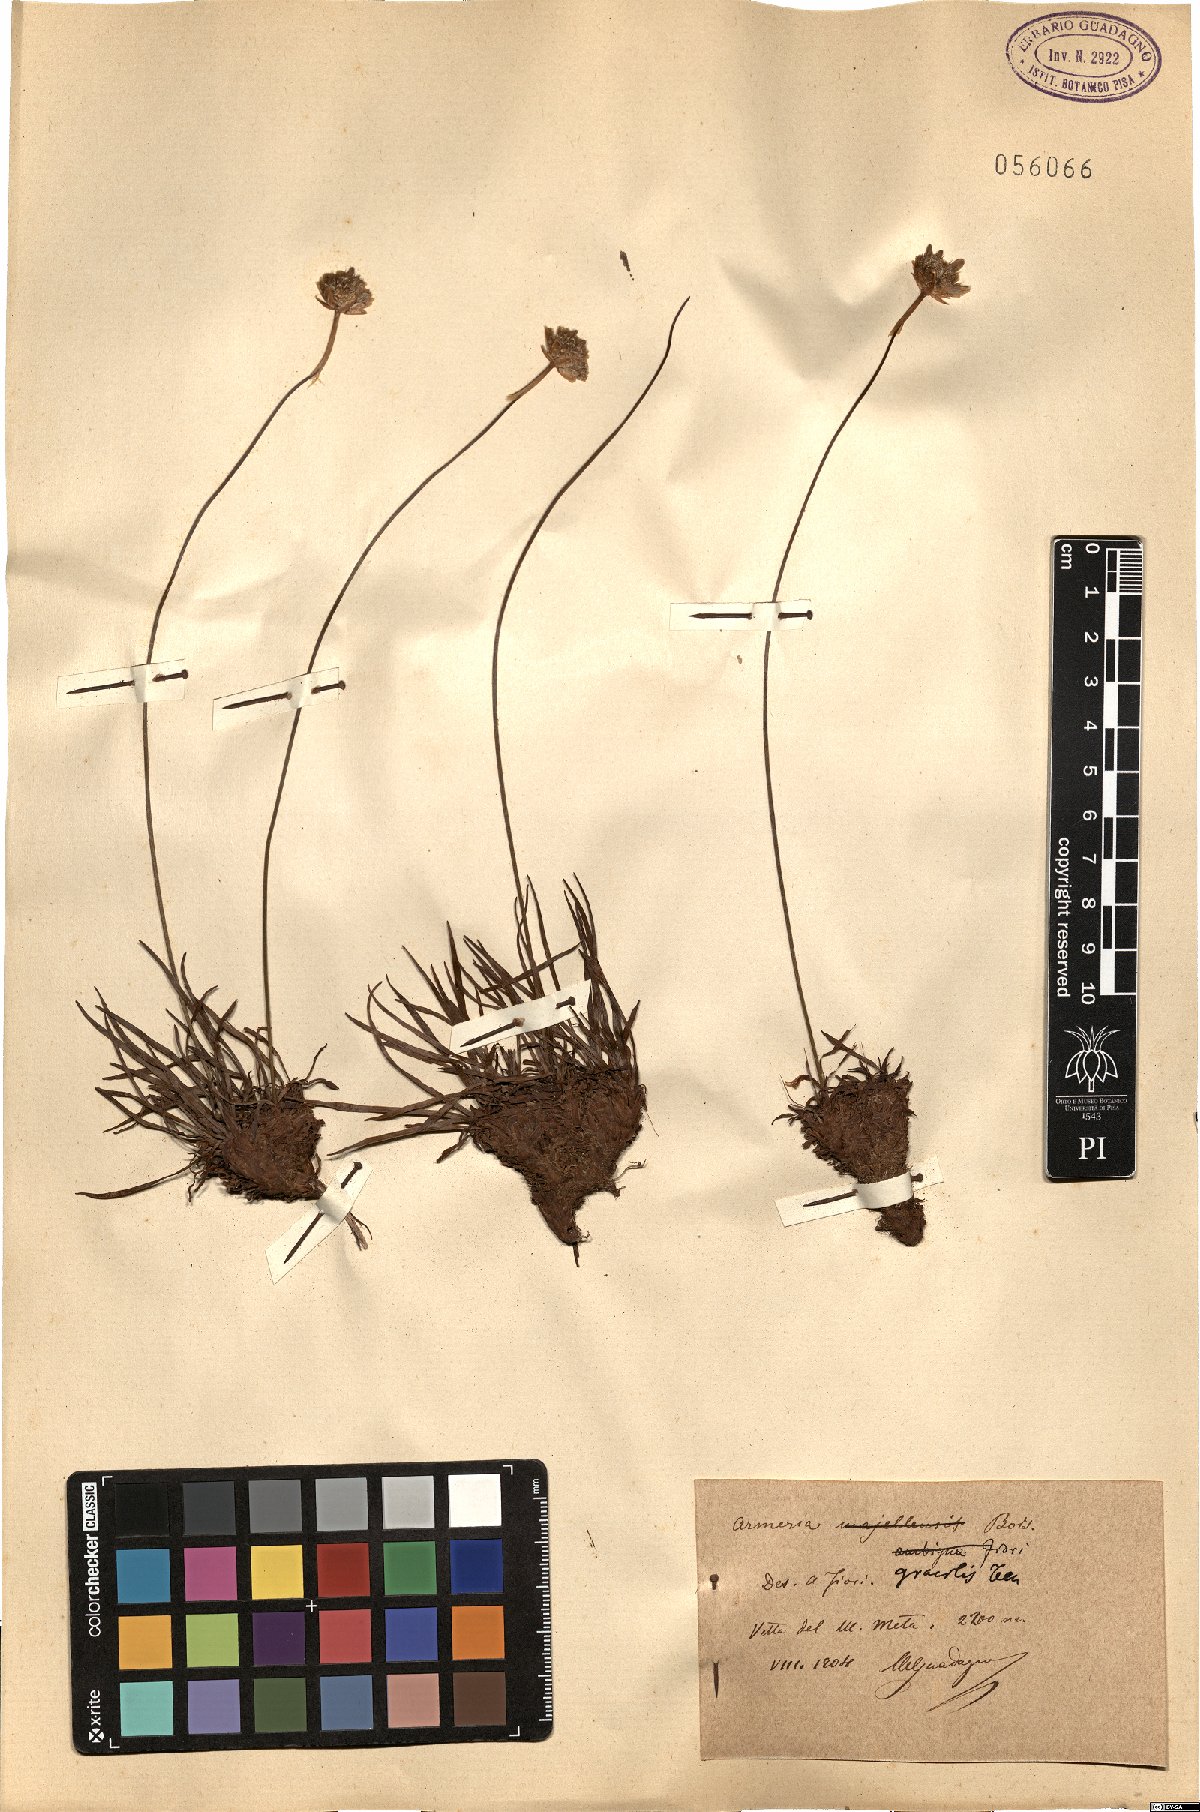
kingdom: Plantae
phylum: Tracheophyta
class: Magnoliopsida
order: Caryophyllales
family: Plumbaginaceae
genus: Armeria
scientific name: Armeria nebrodensis
